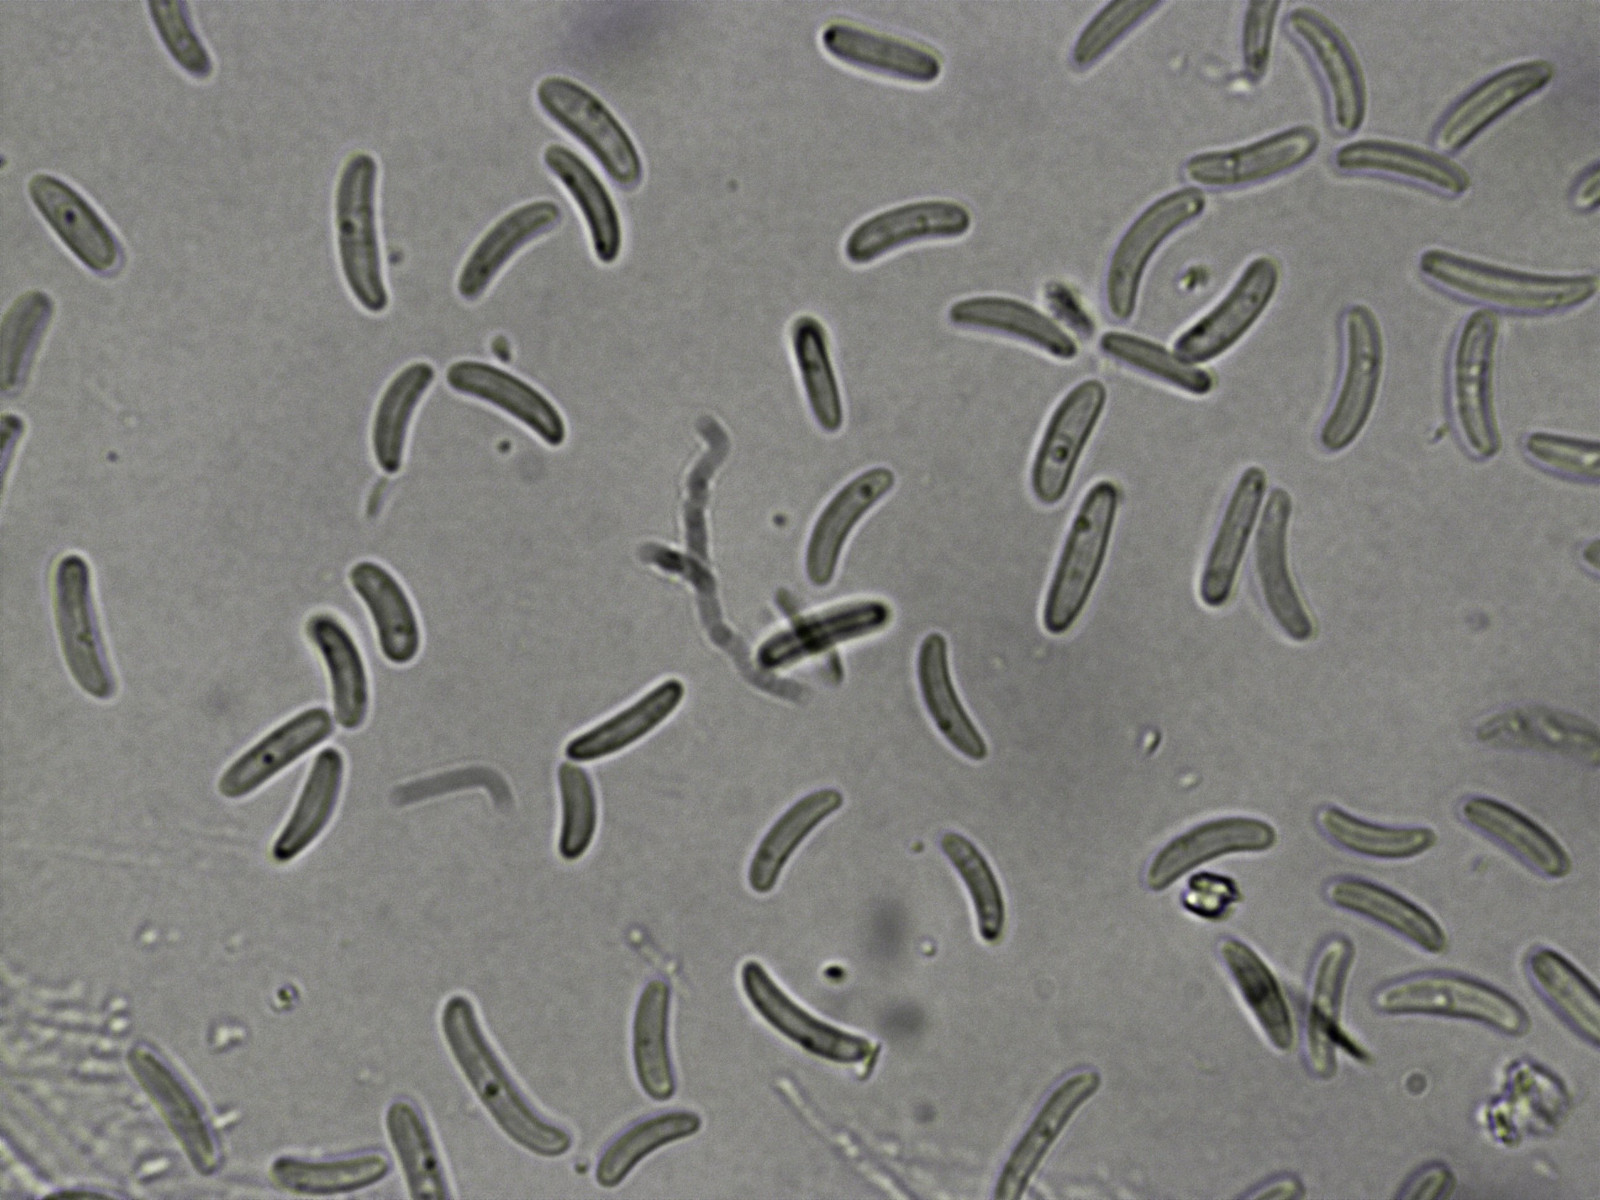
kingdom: Fungi
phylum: Ascomycota
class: Sordariomycetes
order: Xylariales
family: Diatrypaceae
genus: Eutypa
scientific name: Eutypa lata
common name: almindelig kulskorpe
